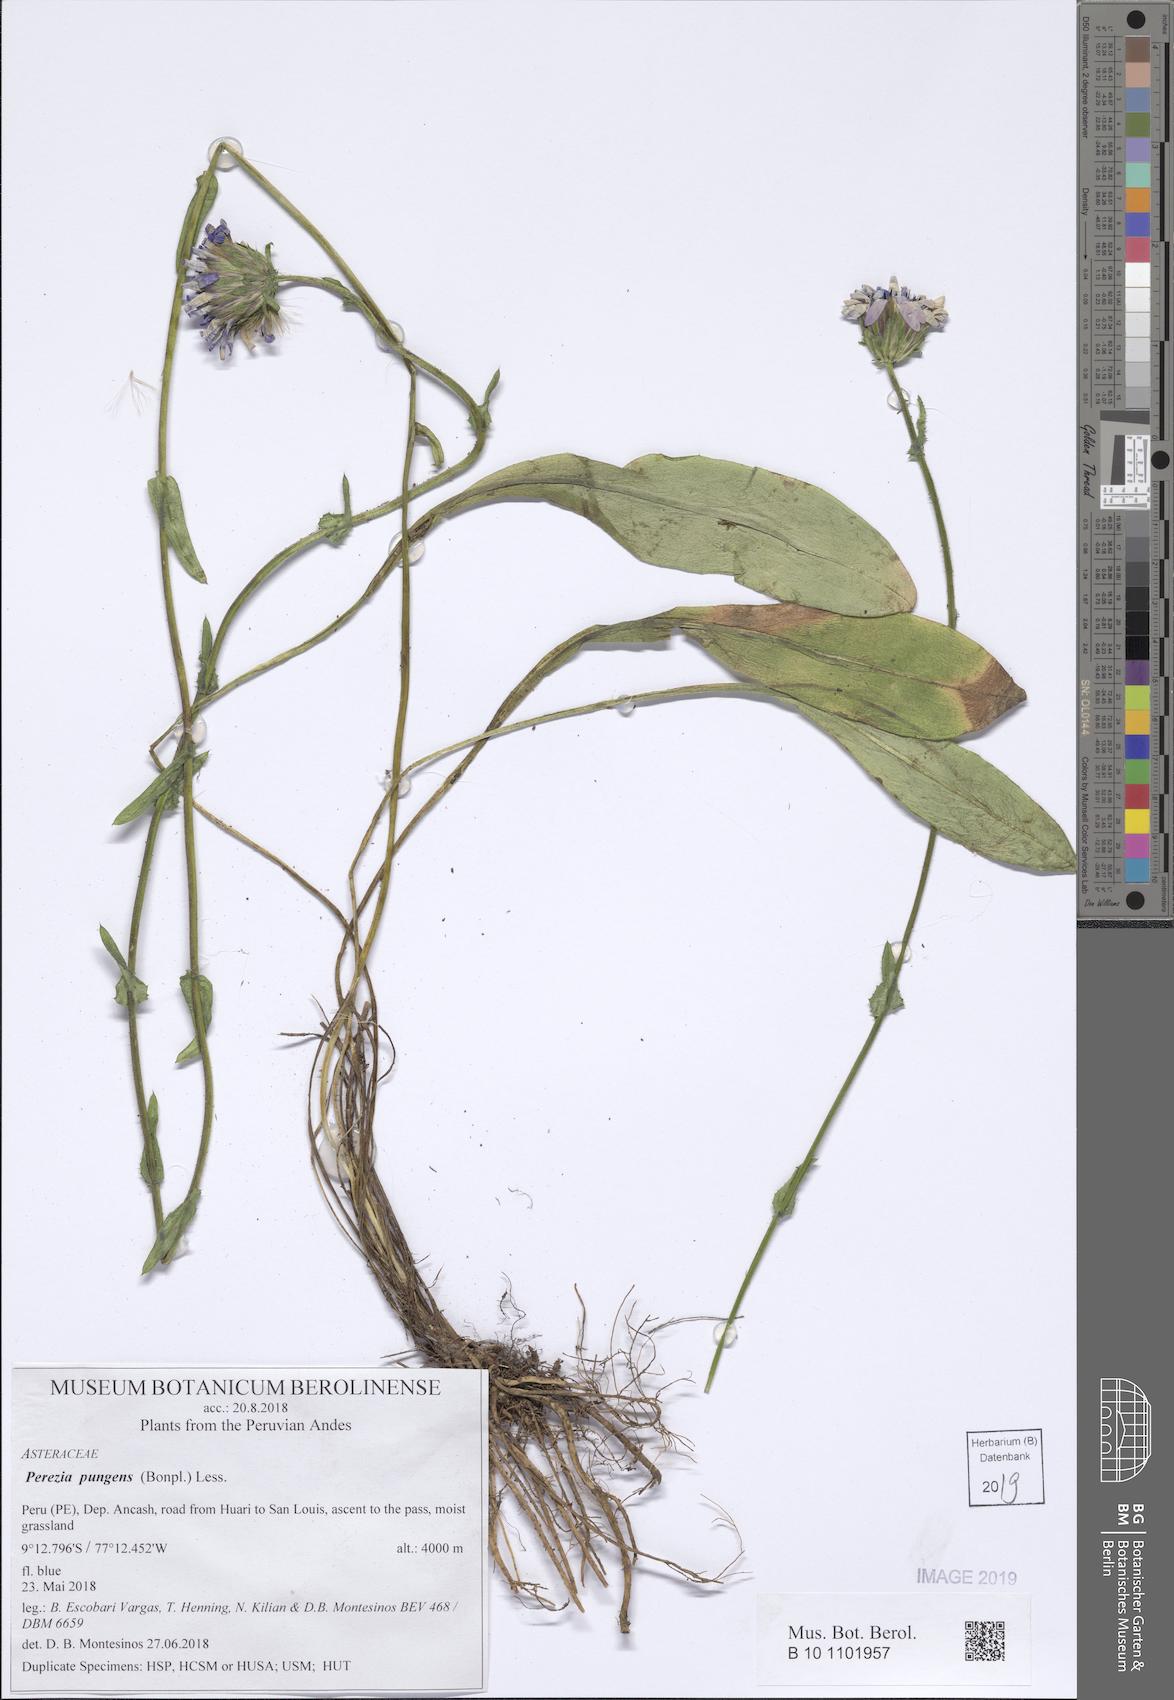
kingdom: Plantae
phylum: Tracheophyta
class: Magnoliopsida
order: Asterales
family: Asteraceae
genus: Perezia
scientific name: Perezia pungens
